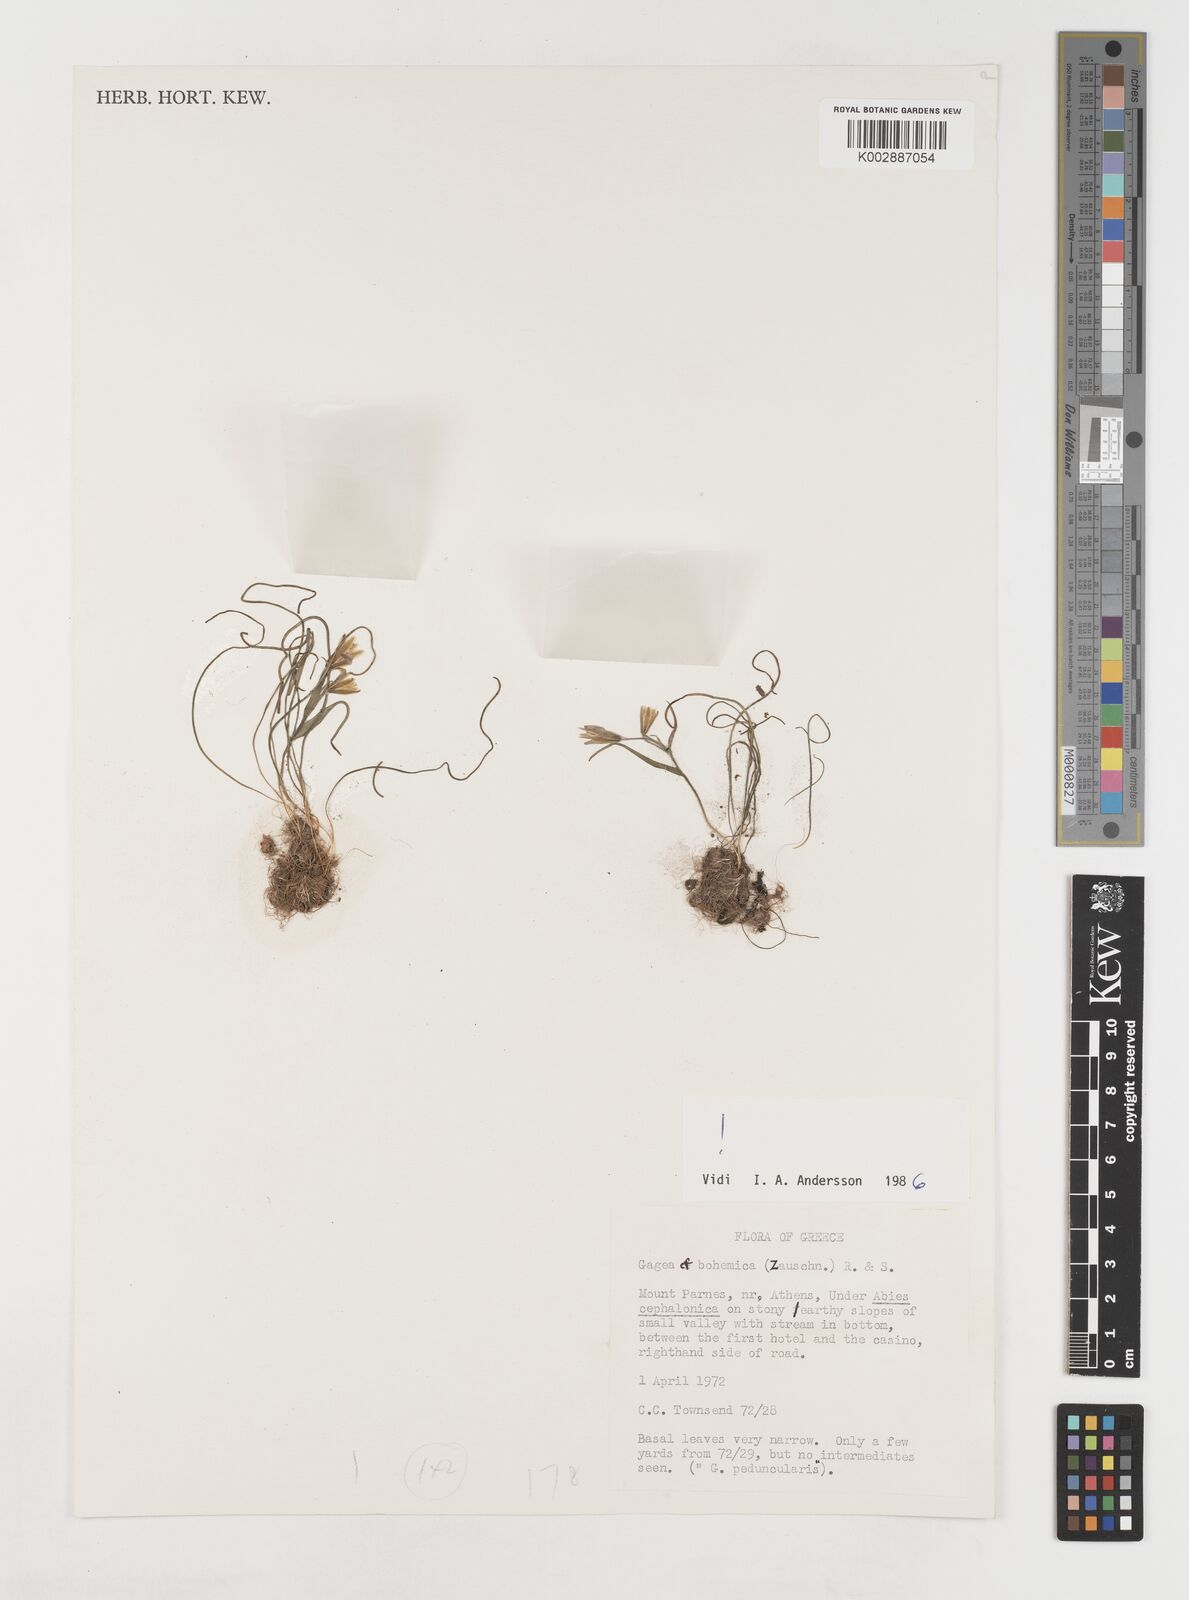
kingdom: Plantae
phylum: Tracheophyta
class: Liliopsida
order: Liliales
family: Liliaceae
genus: Gagea
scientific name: Gagea bohemica
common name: Early star-of-bethlehem
